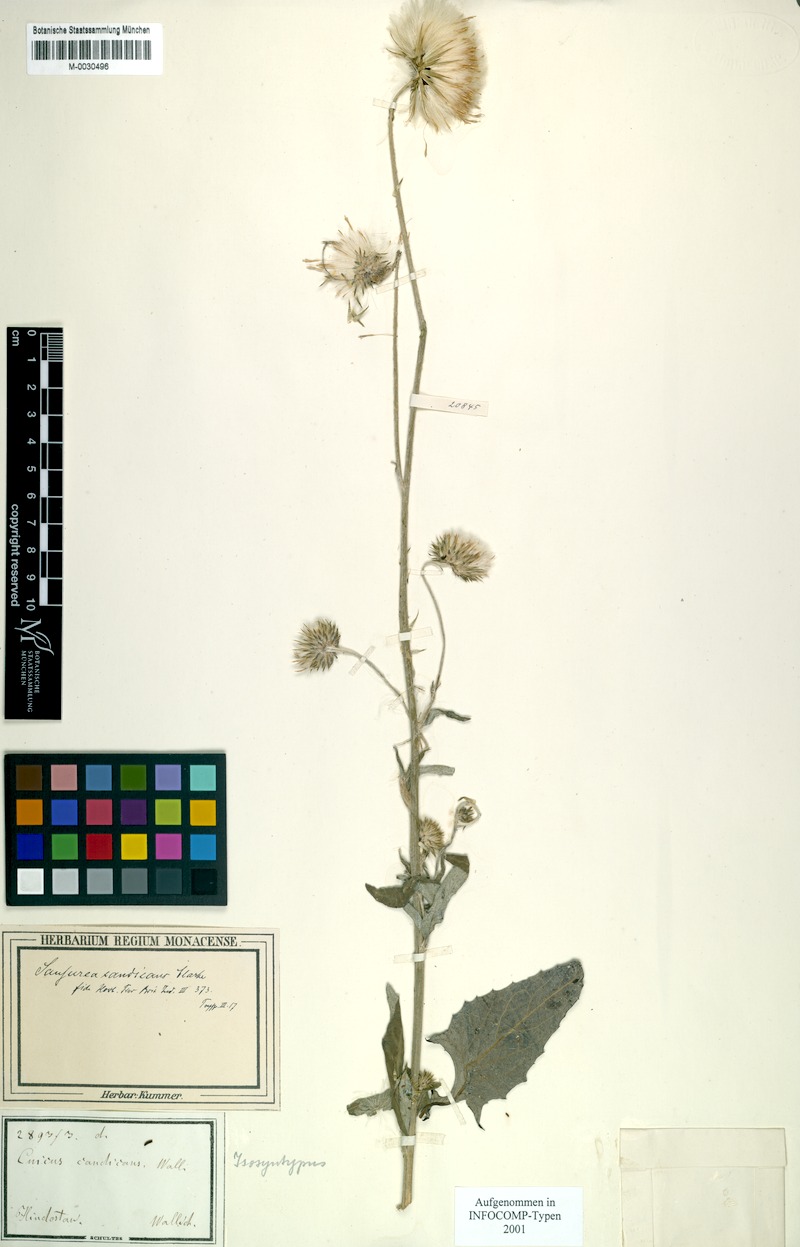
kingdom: Plantae
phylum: Tracheophyta
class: Magnoliopsida
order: Asterales
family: Asteraceae
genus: Jurinea
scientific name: Jurinea heteromalla
